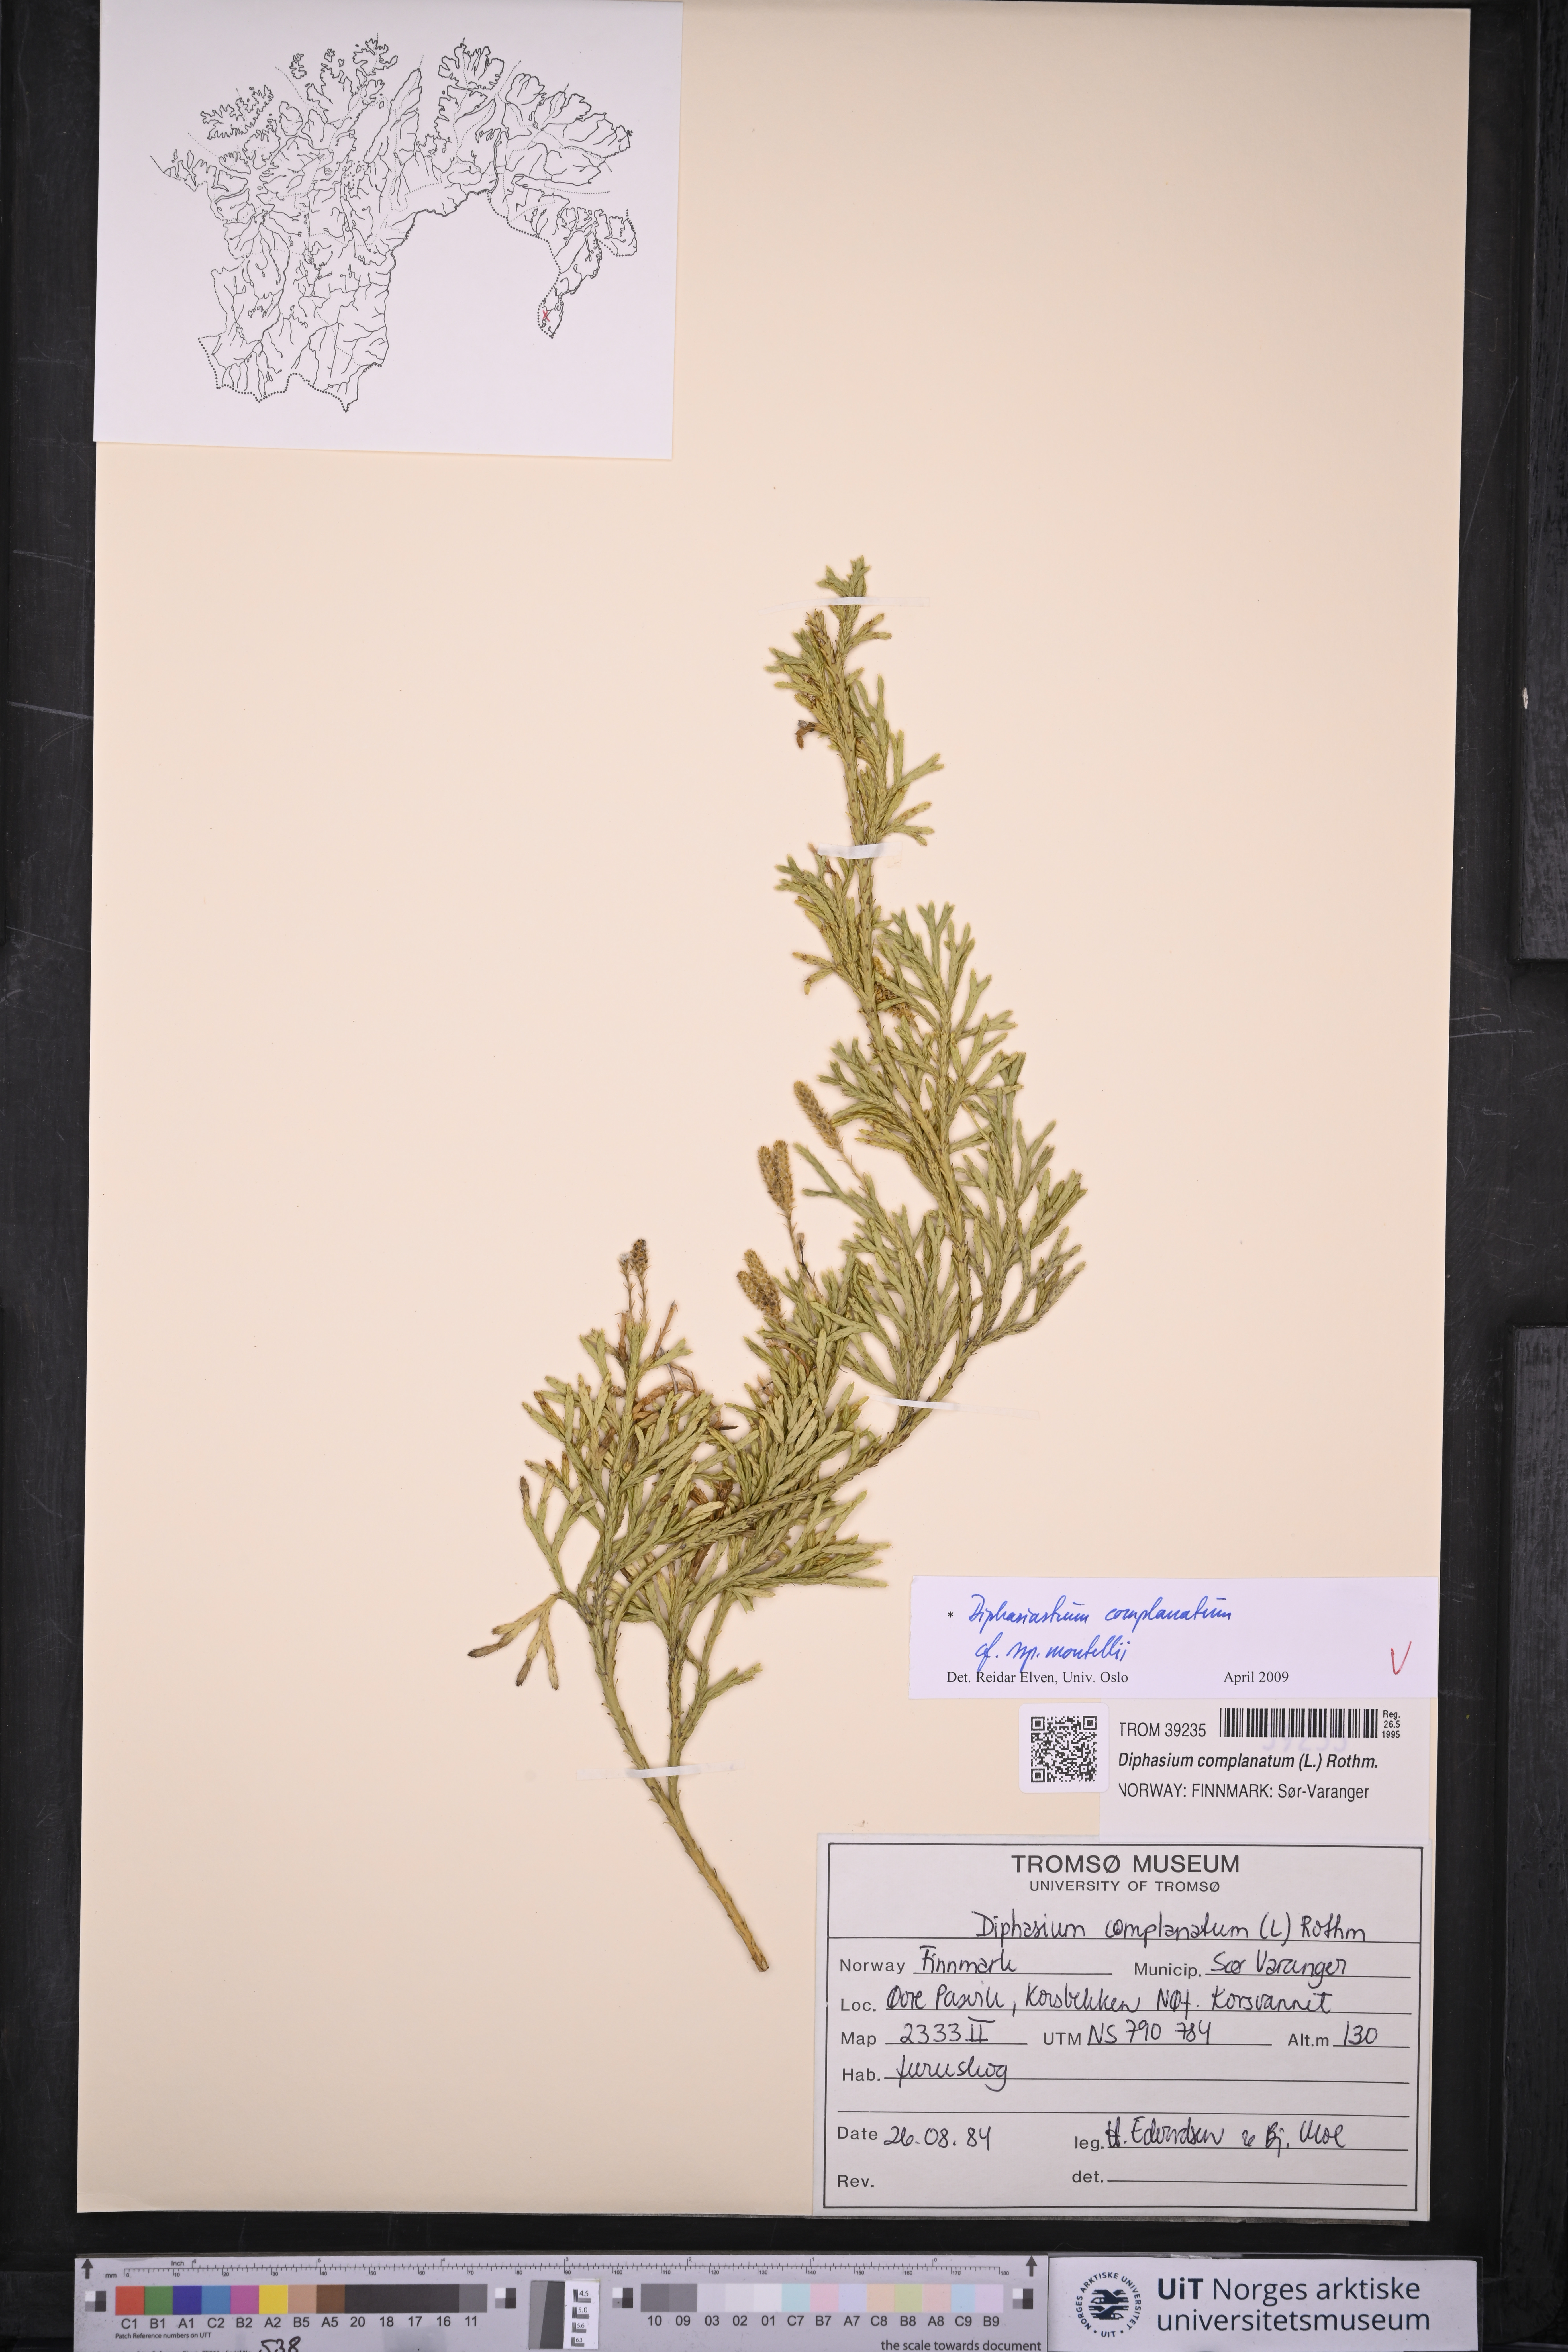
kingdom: Plantae
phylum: Tracheophyta
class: Lycopodiopsida
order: Lycopodiales
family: Lycopodiaceae
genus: Diphasiastrum
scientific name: Diphasiastrum complanatum
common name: Northern running-pine
